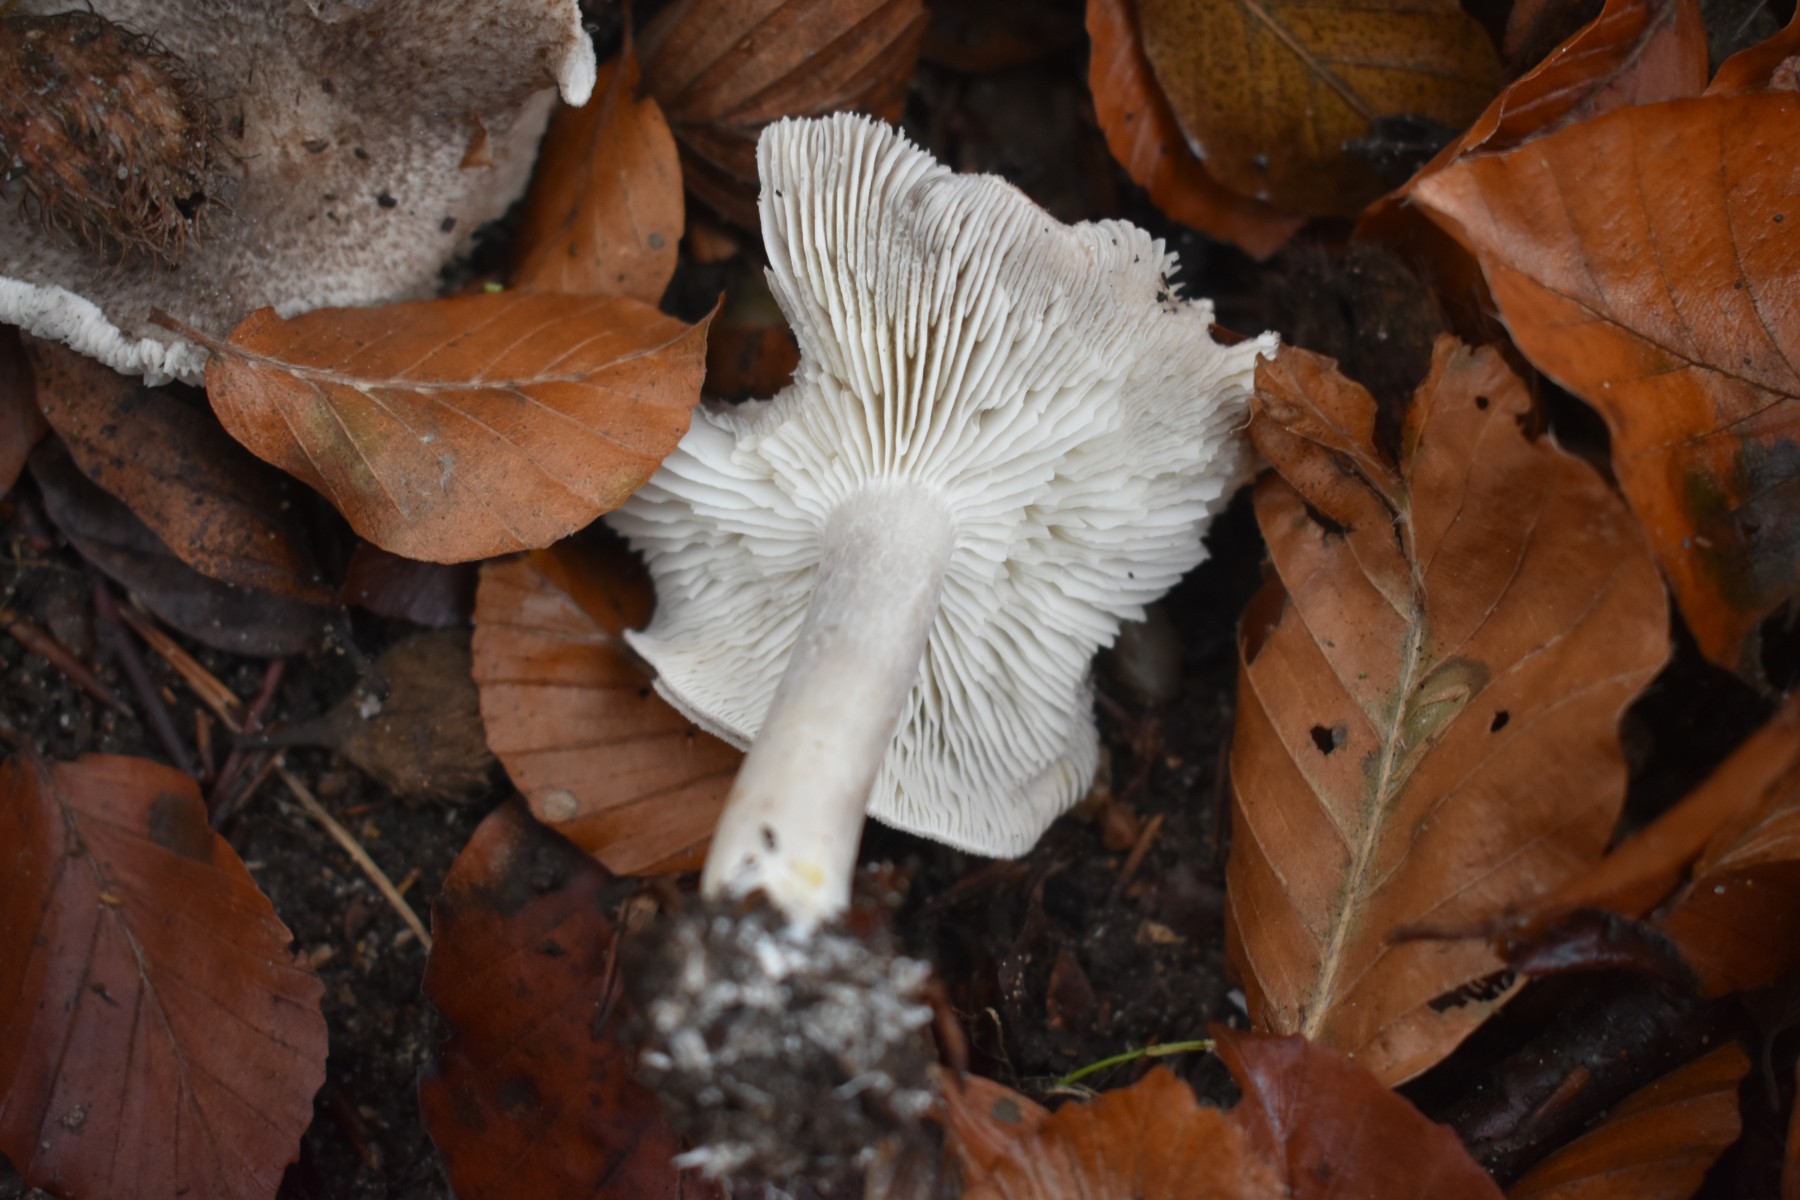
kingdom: Fungi
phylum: Basidiomycota
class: Agaricomycetes
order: Agaricales
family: Tricholomataceae
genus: Tricholoma
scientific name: Tricholoma scalpturatum
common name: gulplettet ridderhat
